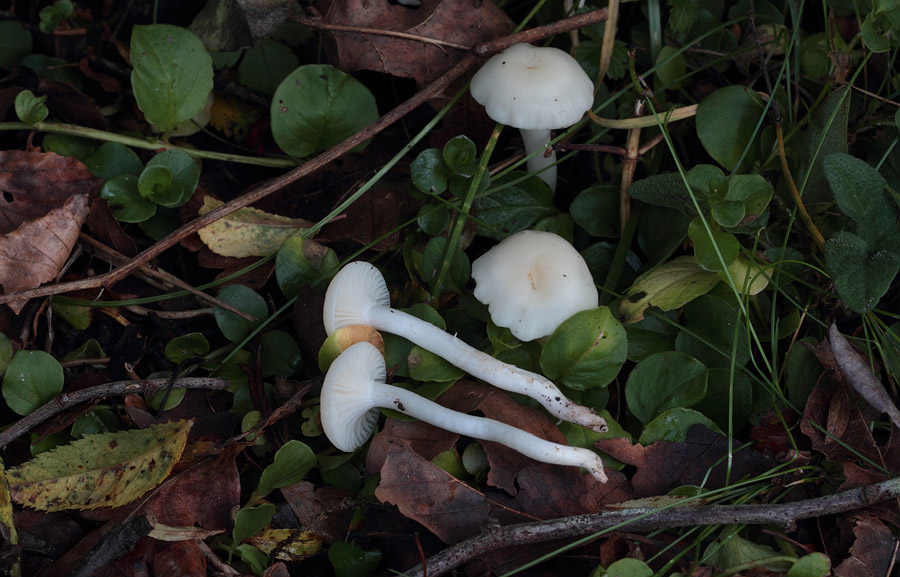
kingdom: Fungi
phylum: Basidiomycota
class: Agaricomycetes
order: Agaricales
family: Hygrophoraceae
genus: Cuphophyllus
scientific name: Cuphophyllus virgineus
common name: snehvid vokshat
